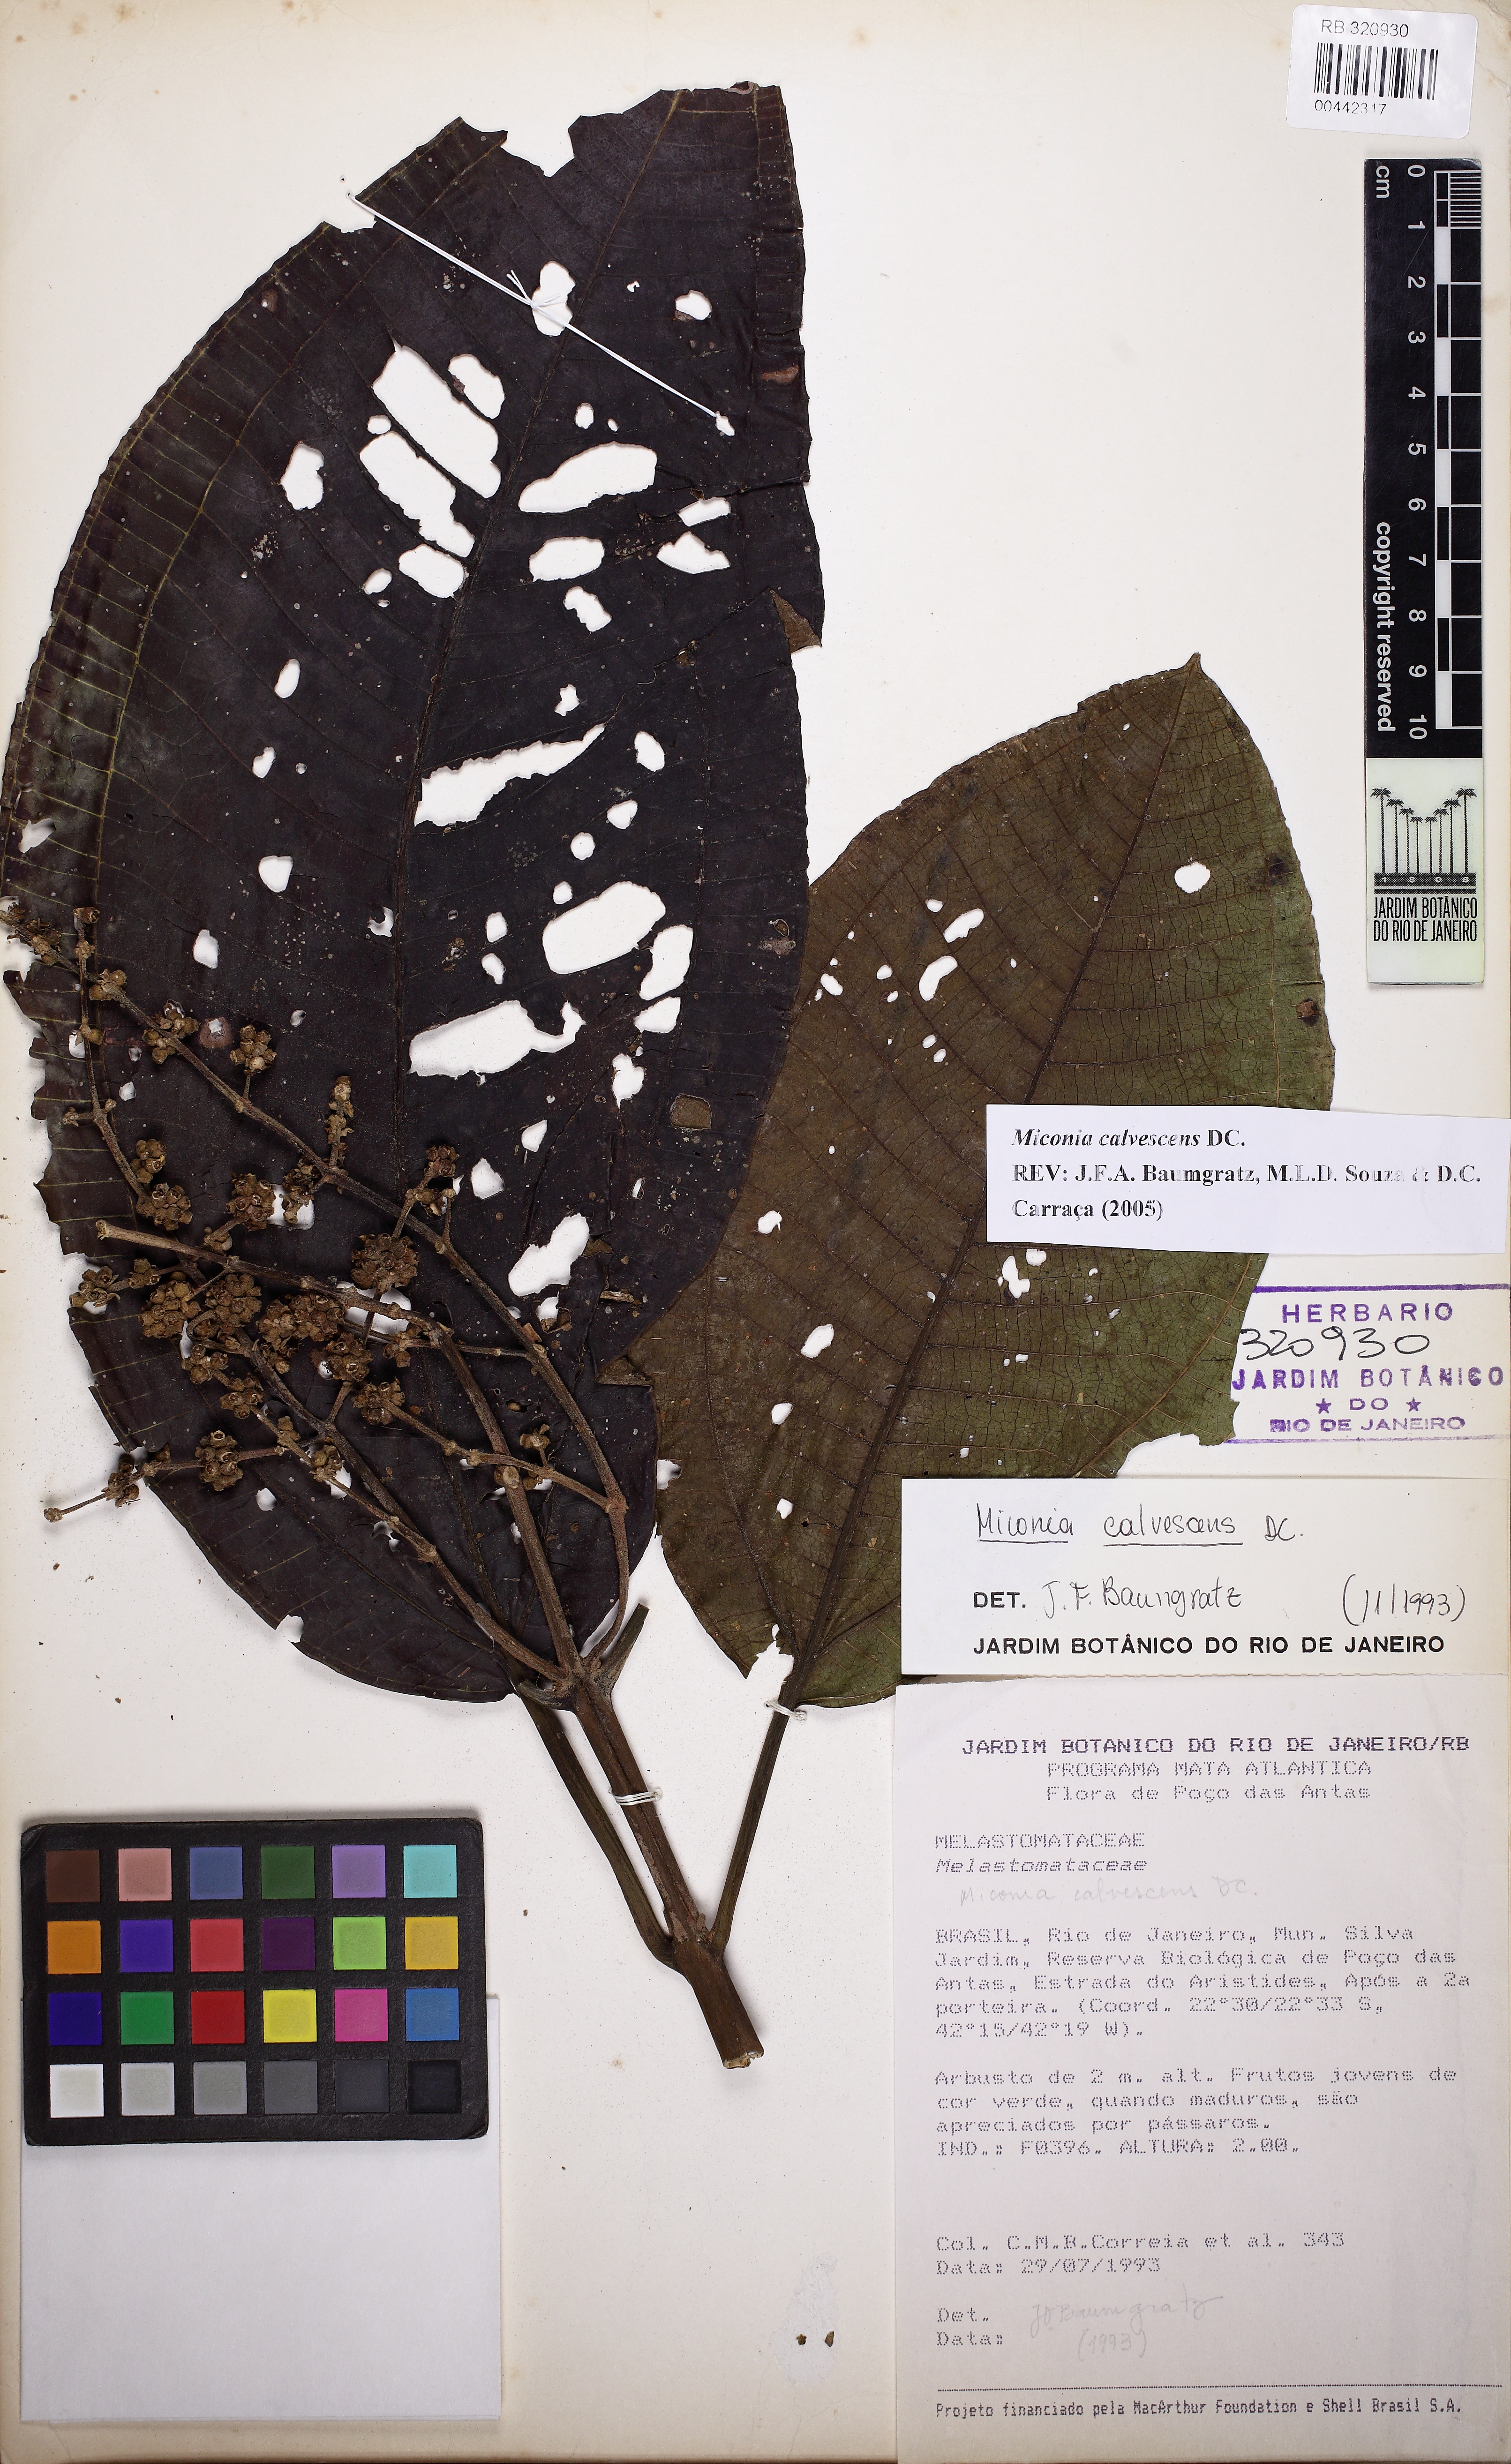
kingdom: Plantae
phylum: Tracheophyta
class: Magnoliopsida
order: Myrtales
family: Melastomataceae
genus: Miconia
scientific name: Miconia calvescens
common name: Purple plague
